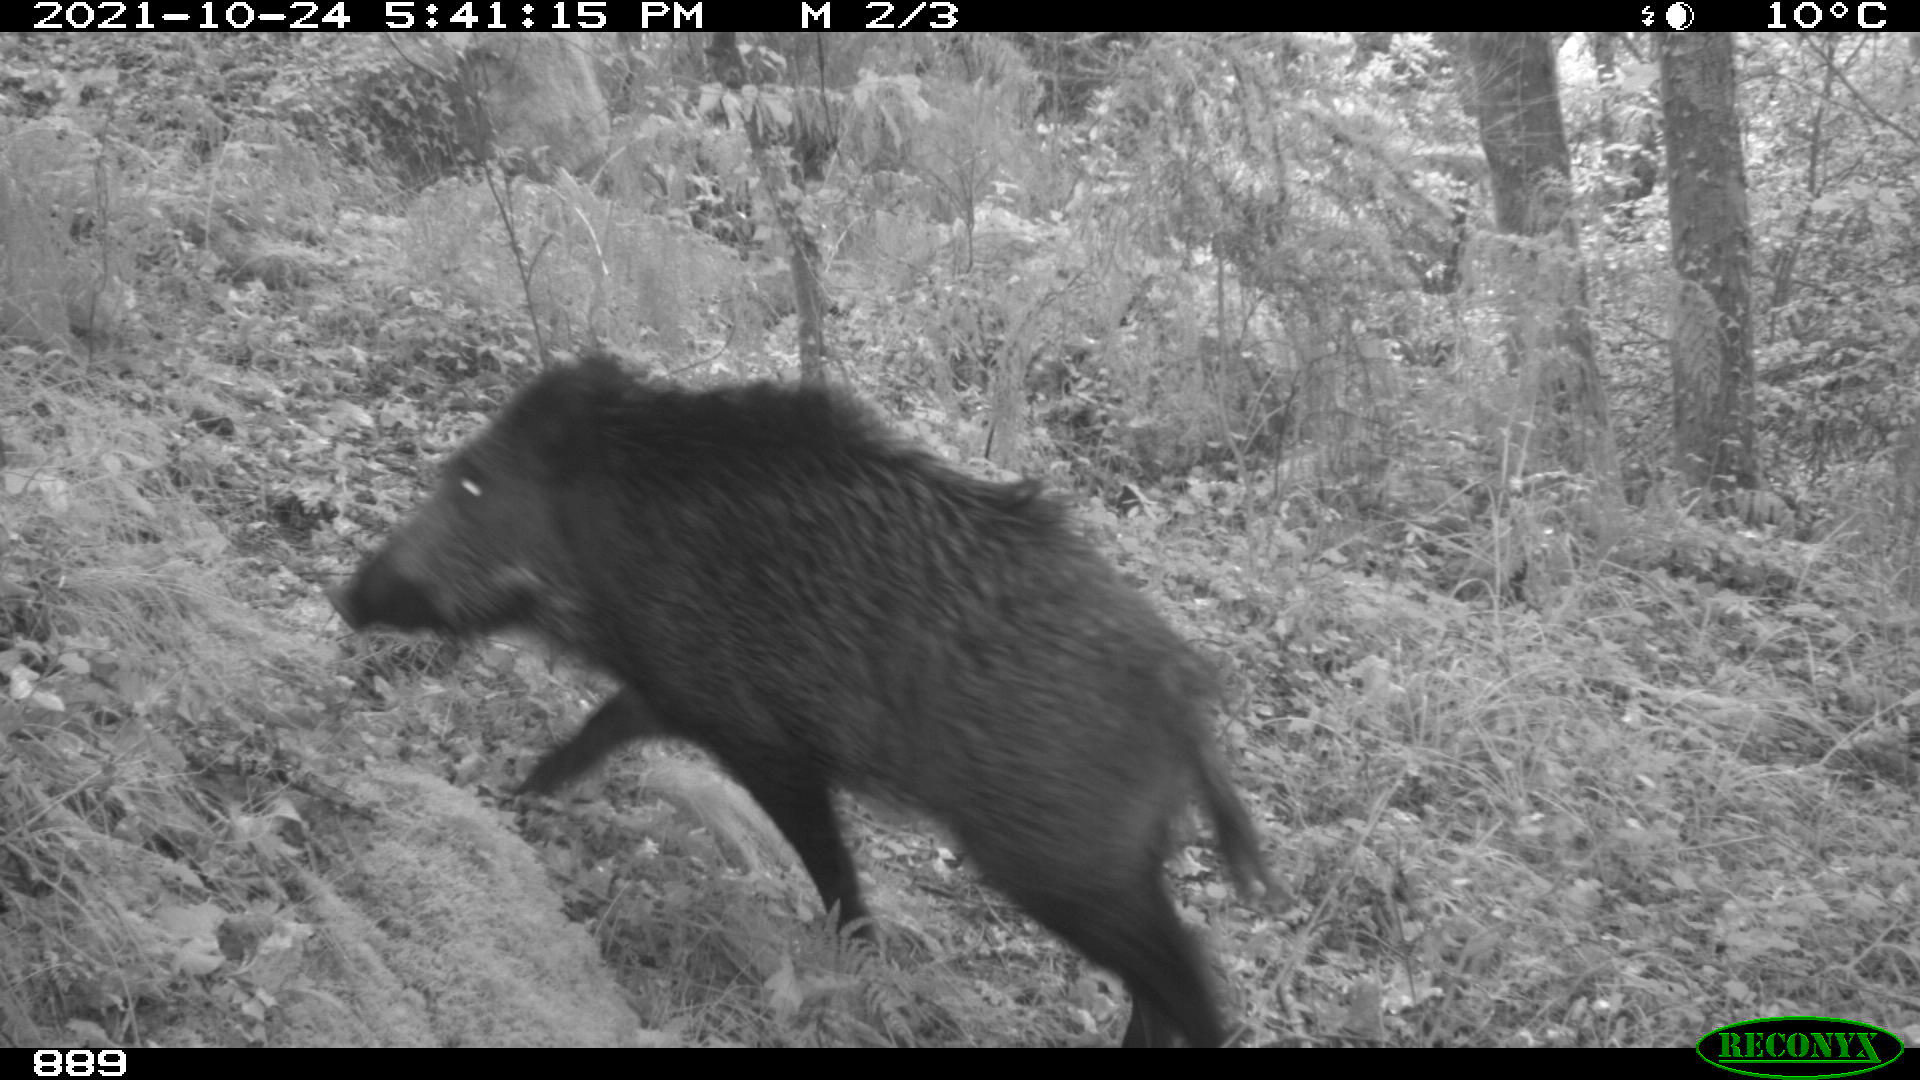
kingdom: Animalia
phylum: Chordata
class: Mammalia
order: Artiodactyla
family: Suidae
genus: Sus
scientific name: Sus scrofa
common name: Wild boar
